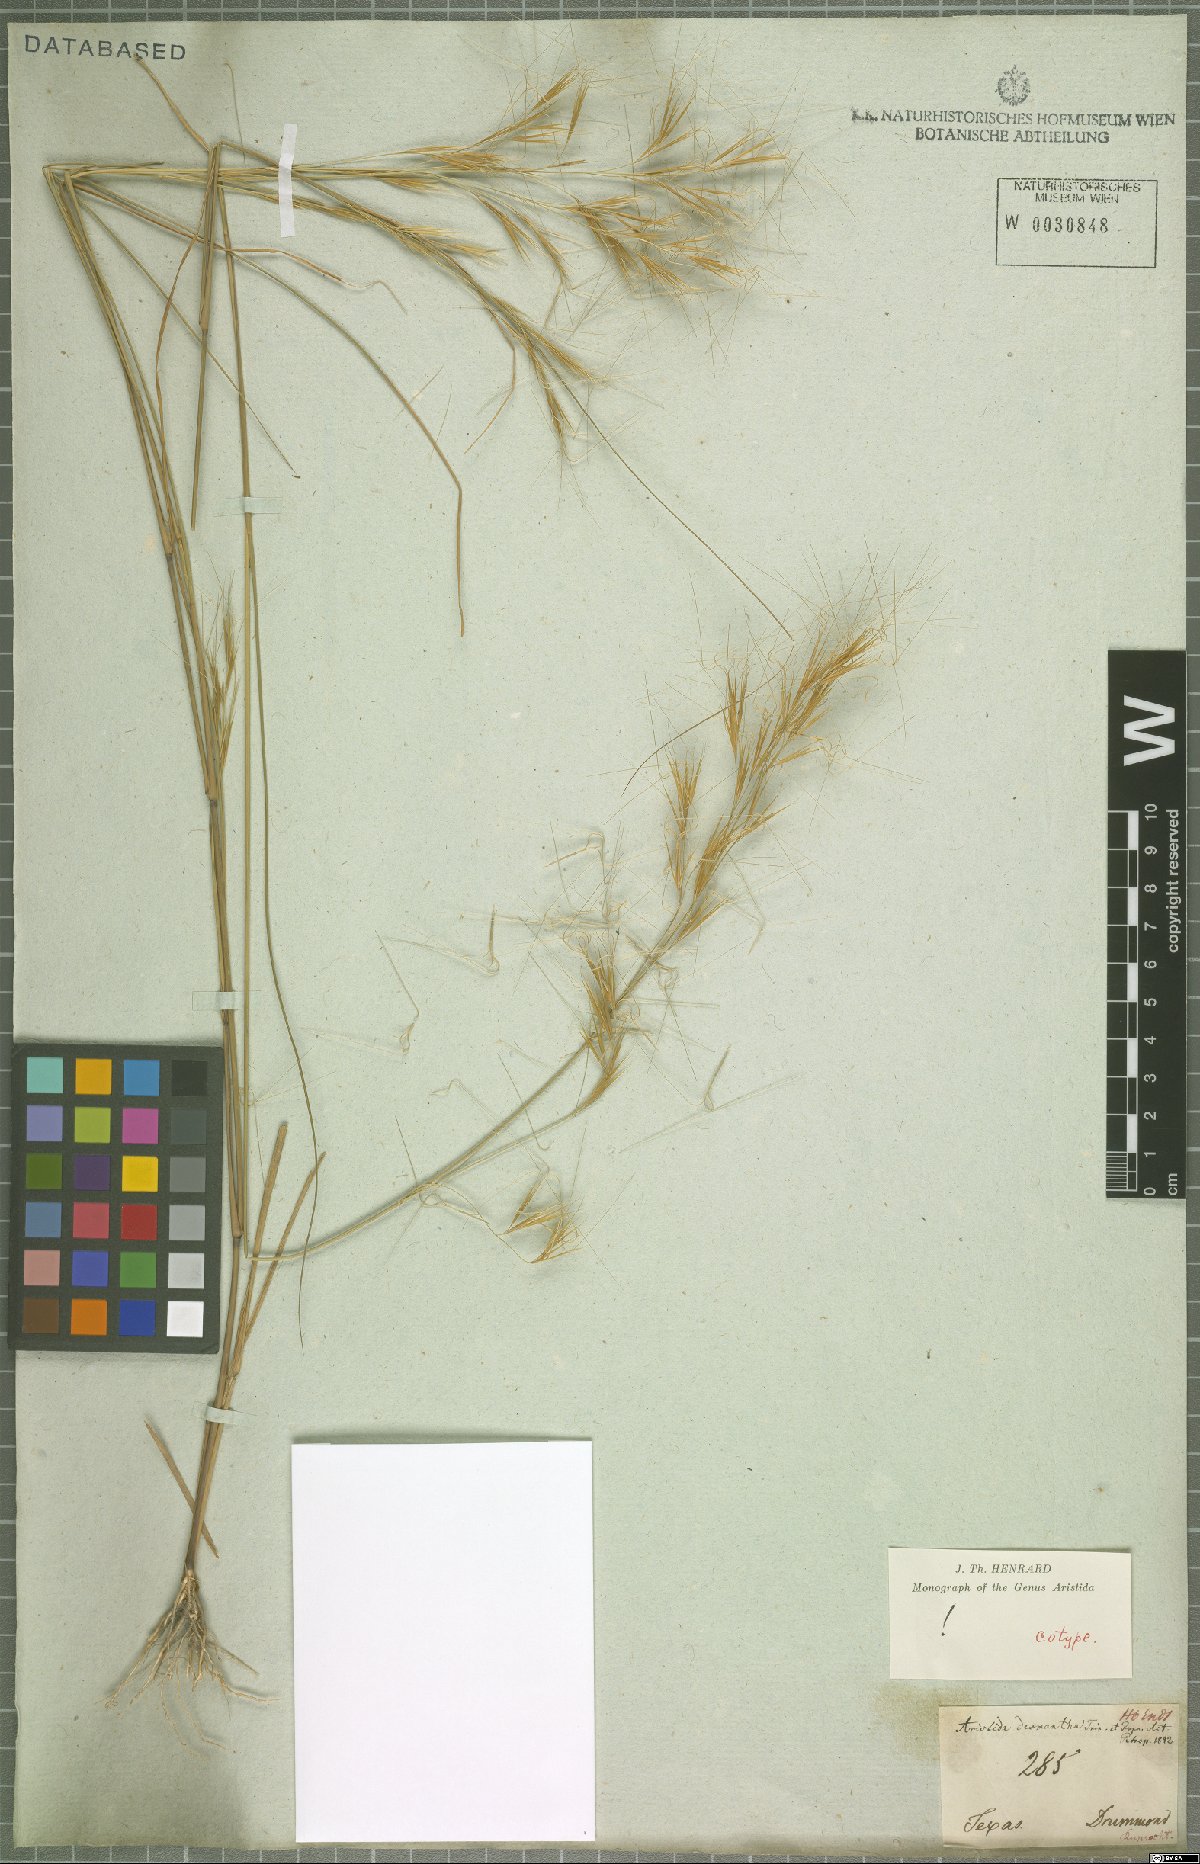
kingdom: Plantae
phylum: Tracheophyta
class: Liliopsida
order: Poales
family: Poaceae
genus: Aristida
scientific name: Aristida desmantha
